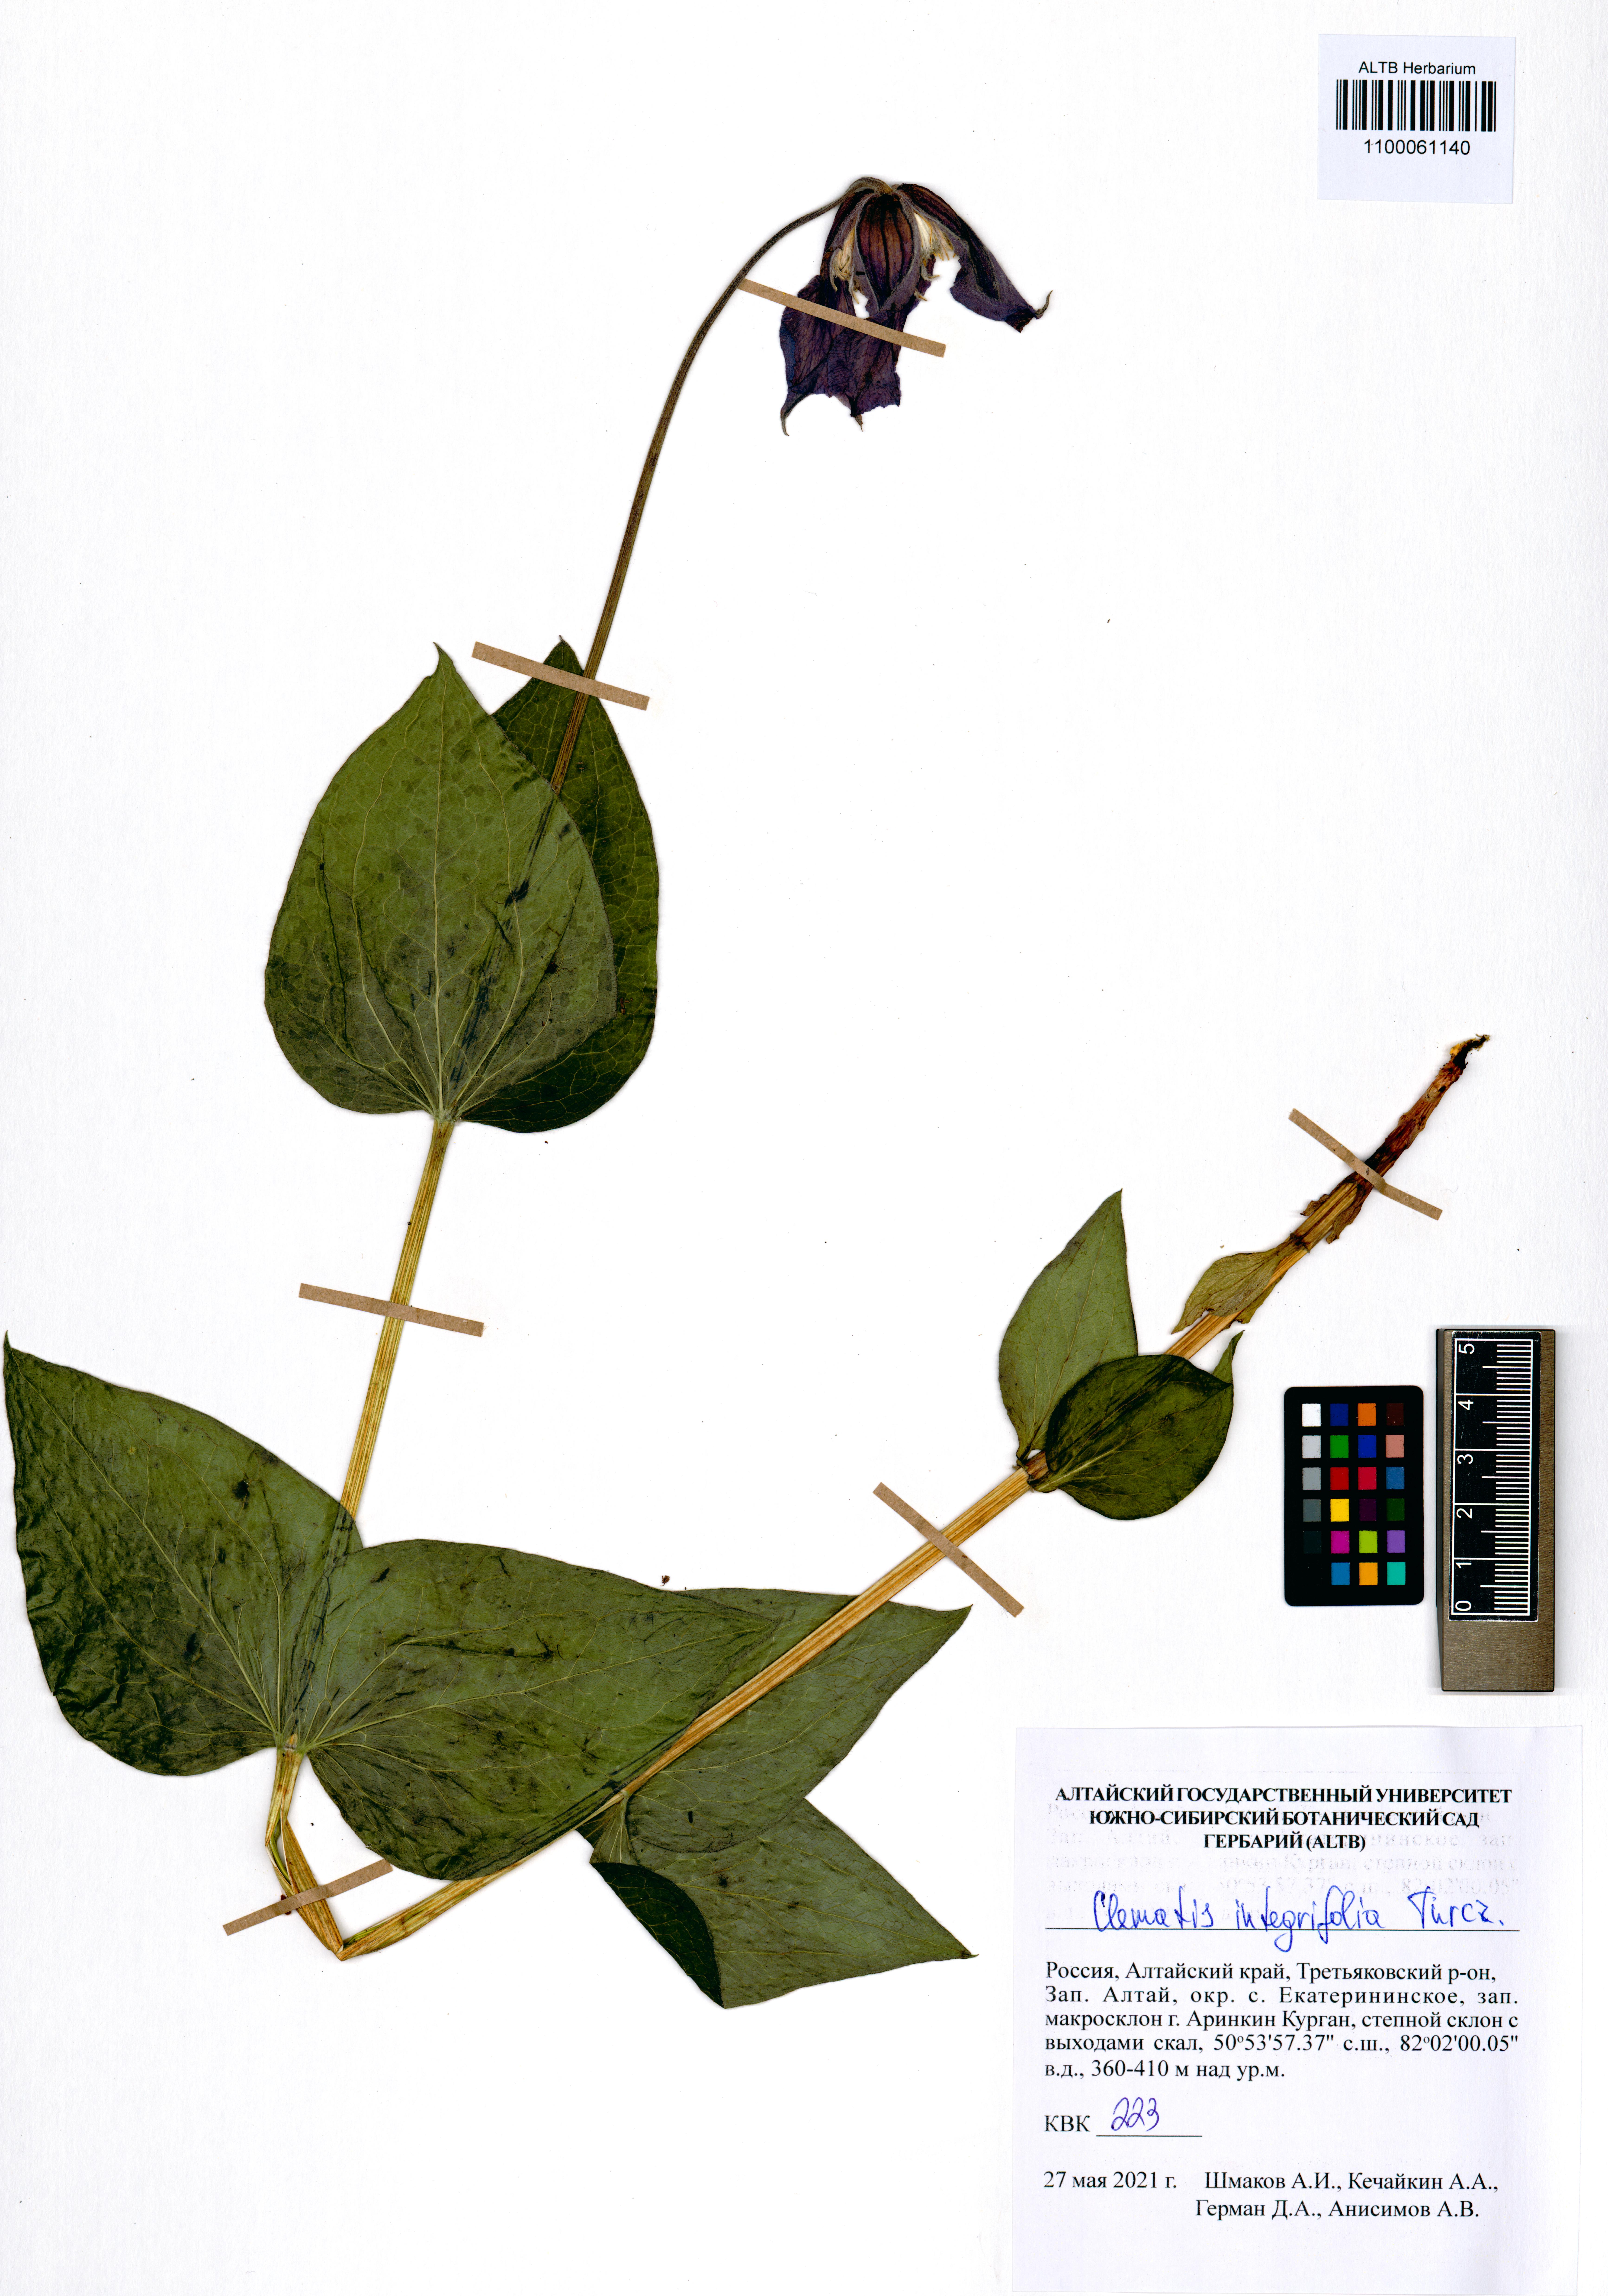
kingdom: Plantae
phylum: Tracheophyta
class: Magnoliopsida
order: Ranunculales
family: Ranunculaceae
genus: Clematis
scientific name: Clematis integrifolia
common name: Solitary clematis
